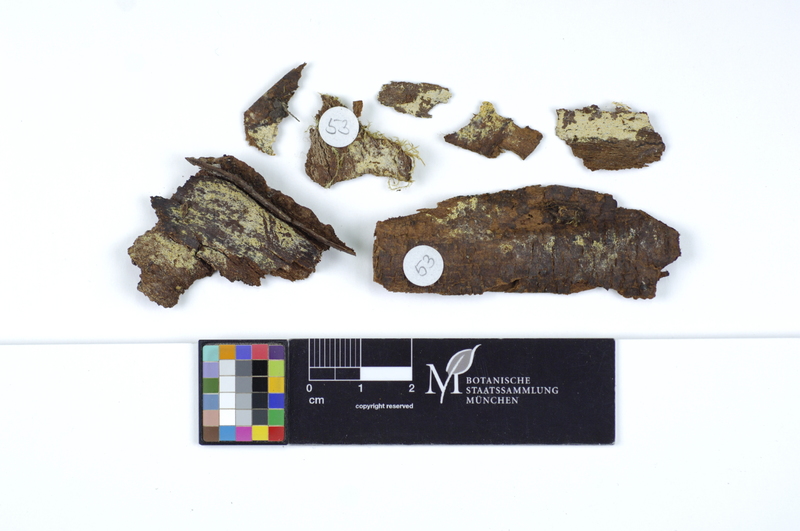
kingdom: Plantae
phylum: Tracheophyta
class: Magnoliopsida
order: Fagales
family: Betulaceae
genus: Betula
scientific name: Betula pubescens
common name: Downy birch
